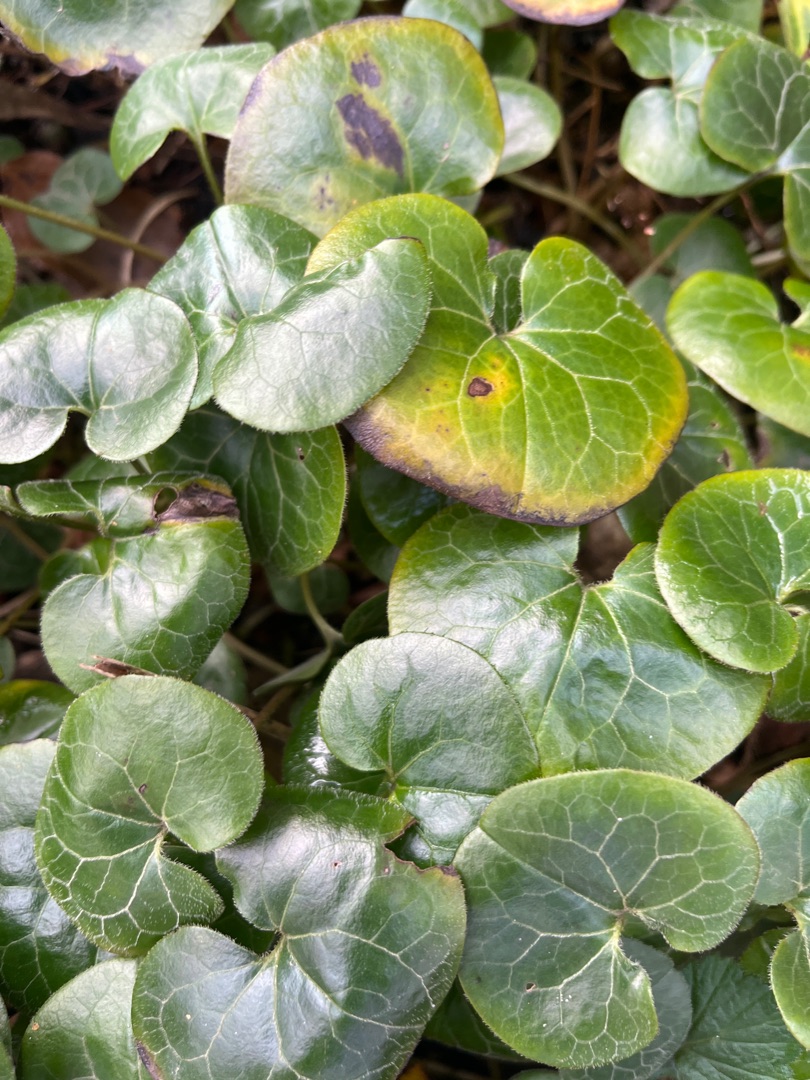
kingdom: Plantae
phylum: Tracheophyta
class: Magnoliopsida
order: Piperales
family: Aristolochiaceae
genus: Asarum
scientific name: Asarum europaeum
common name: Hasselurt
